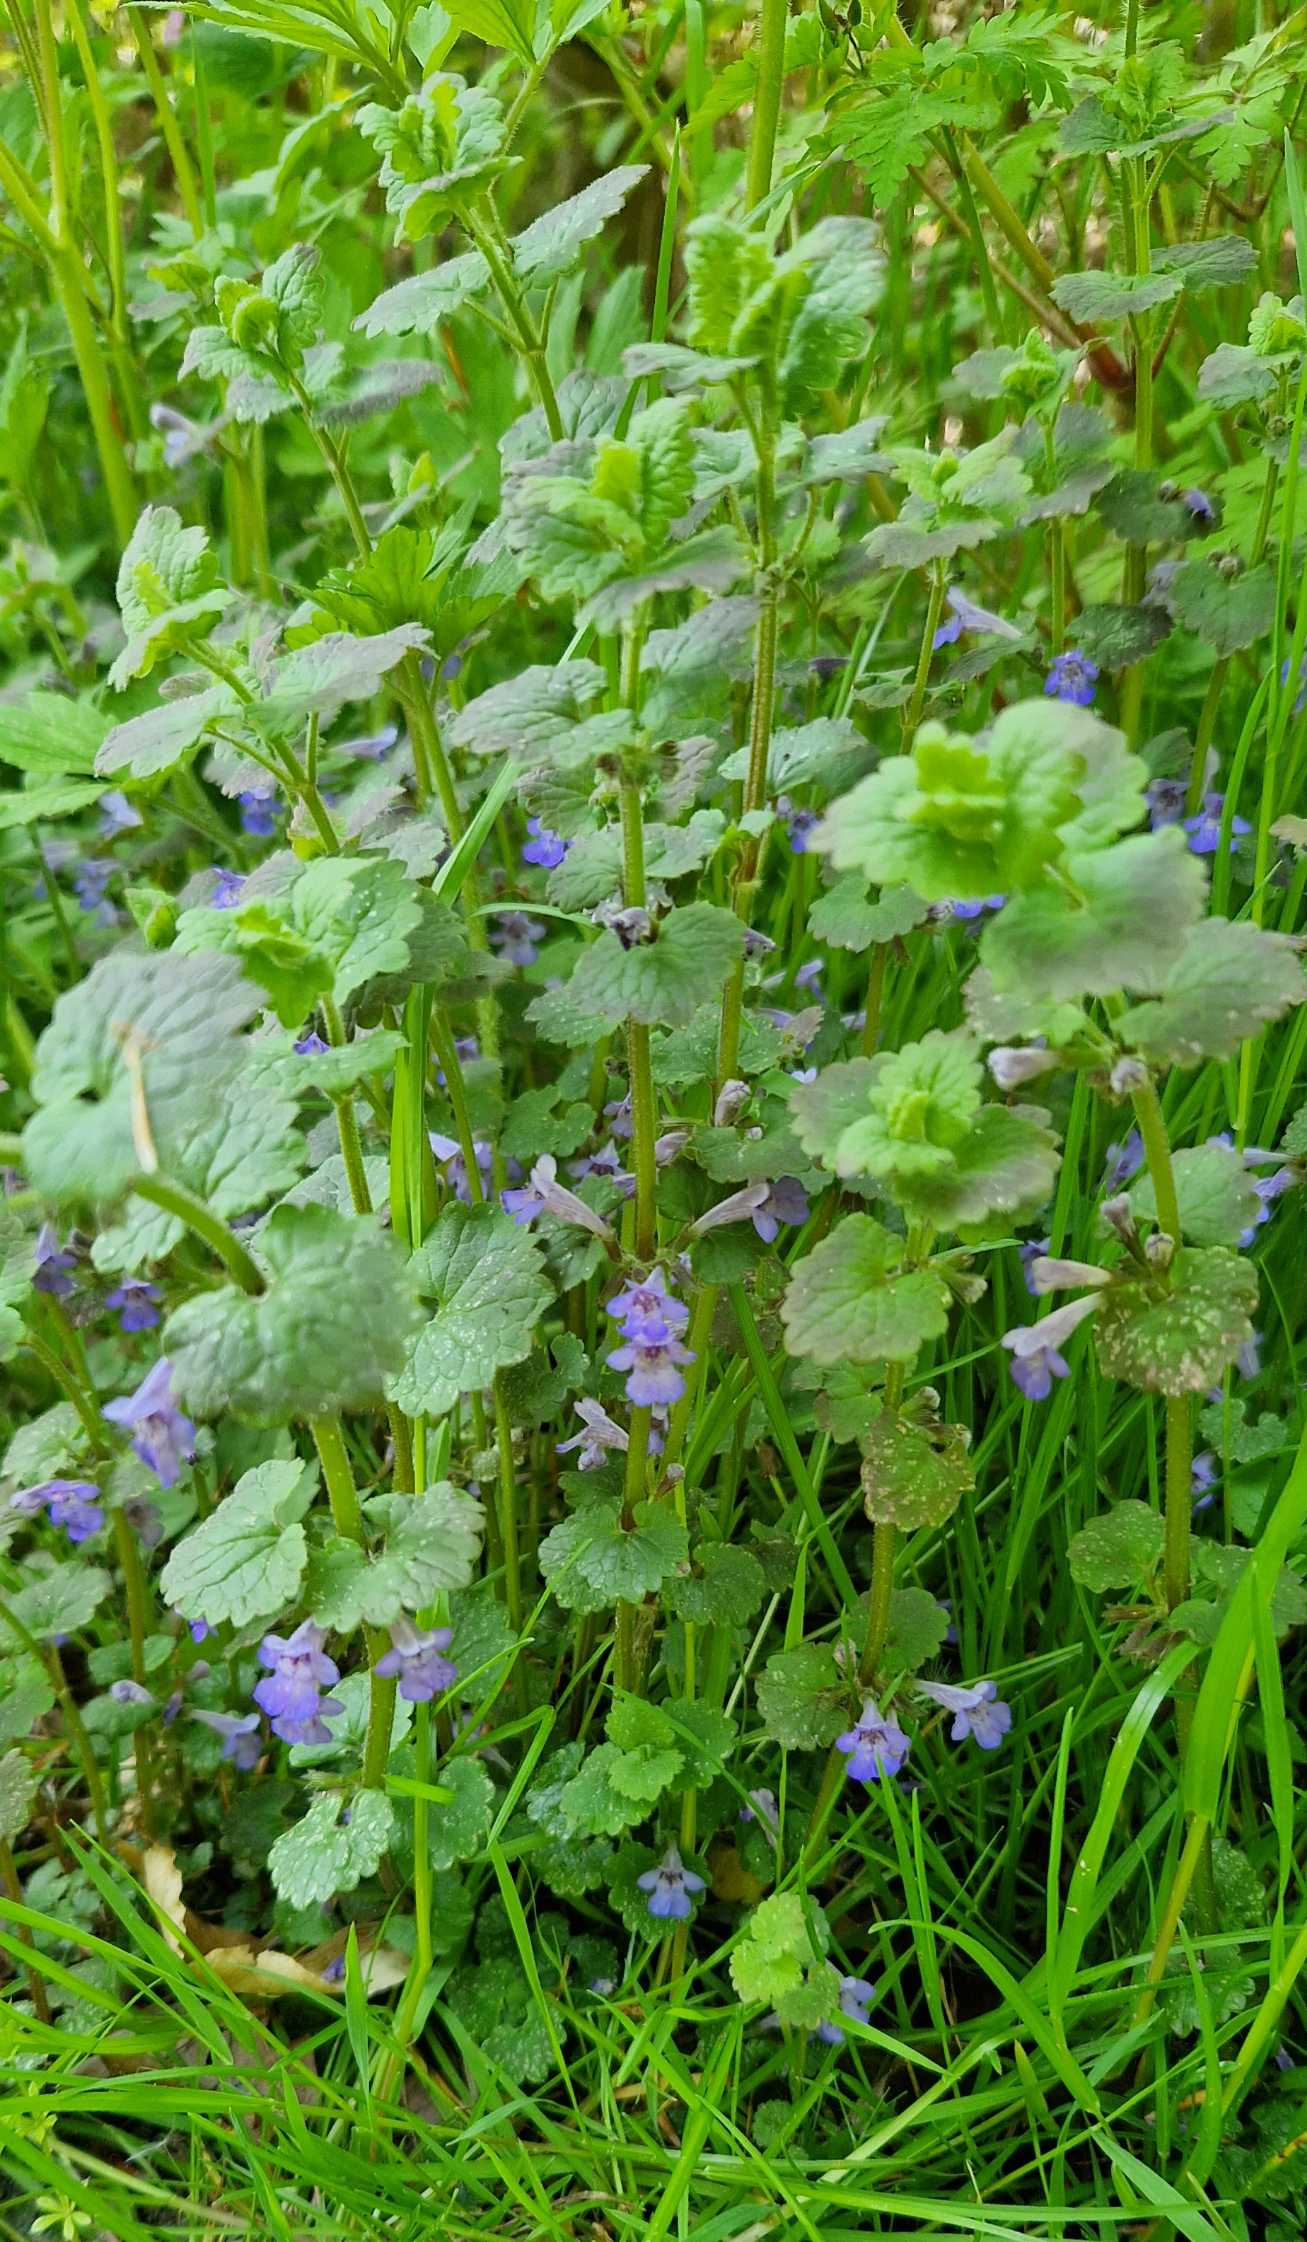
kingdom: Plantae
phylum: Tracheophyta
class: Magnoliopsida
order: Lamiales
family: Lamiaceae
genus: Glechoma
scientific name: Glechoma hederacea
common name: Korsknap
